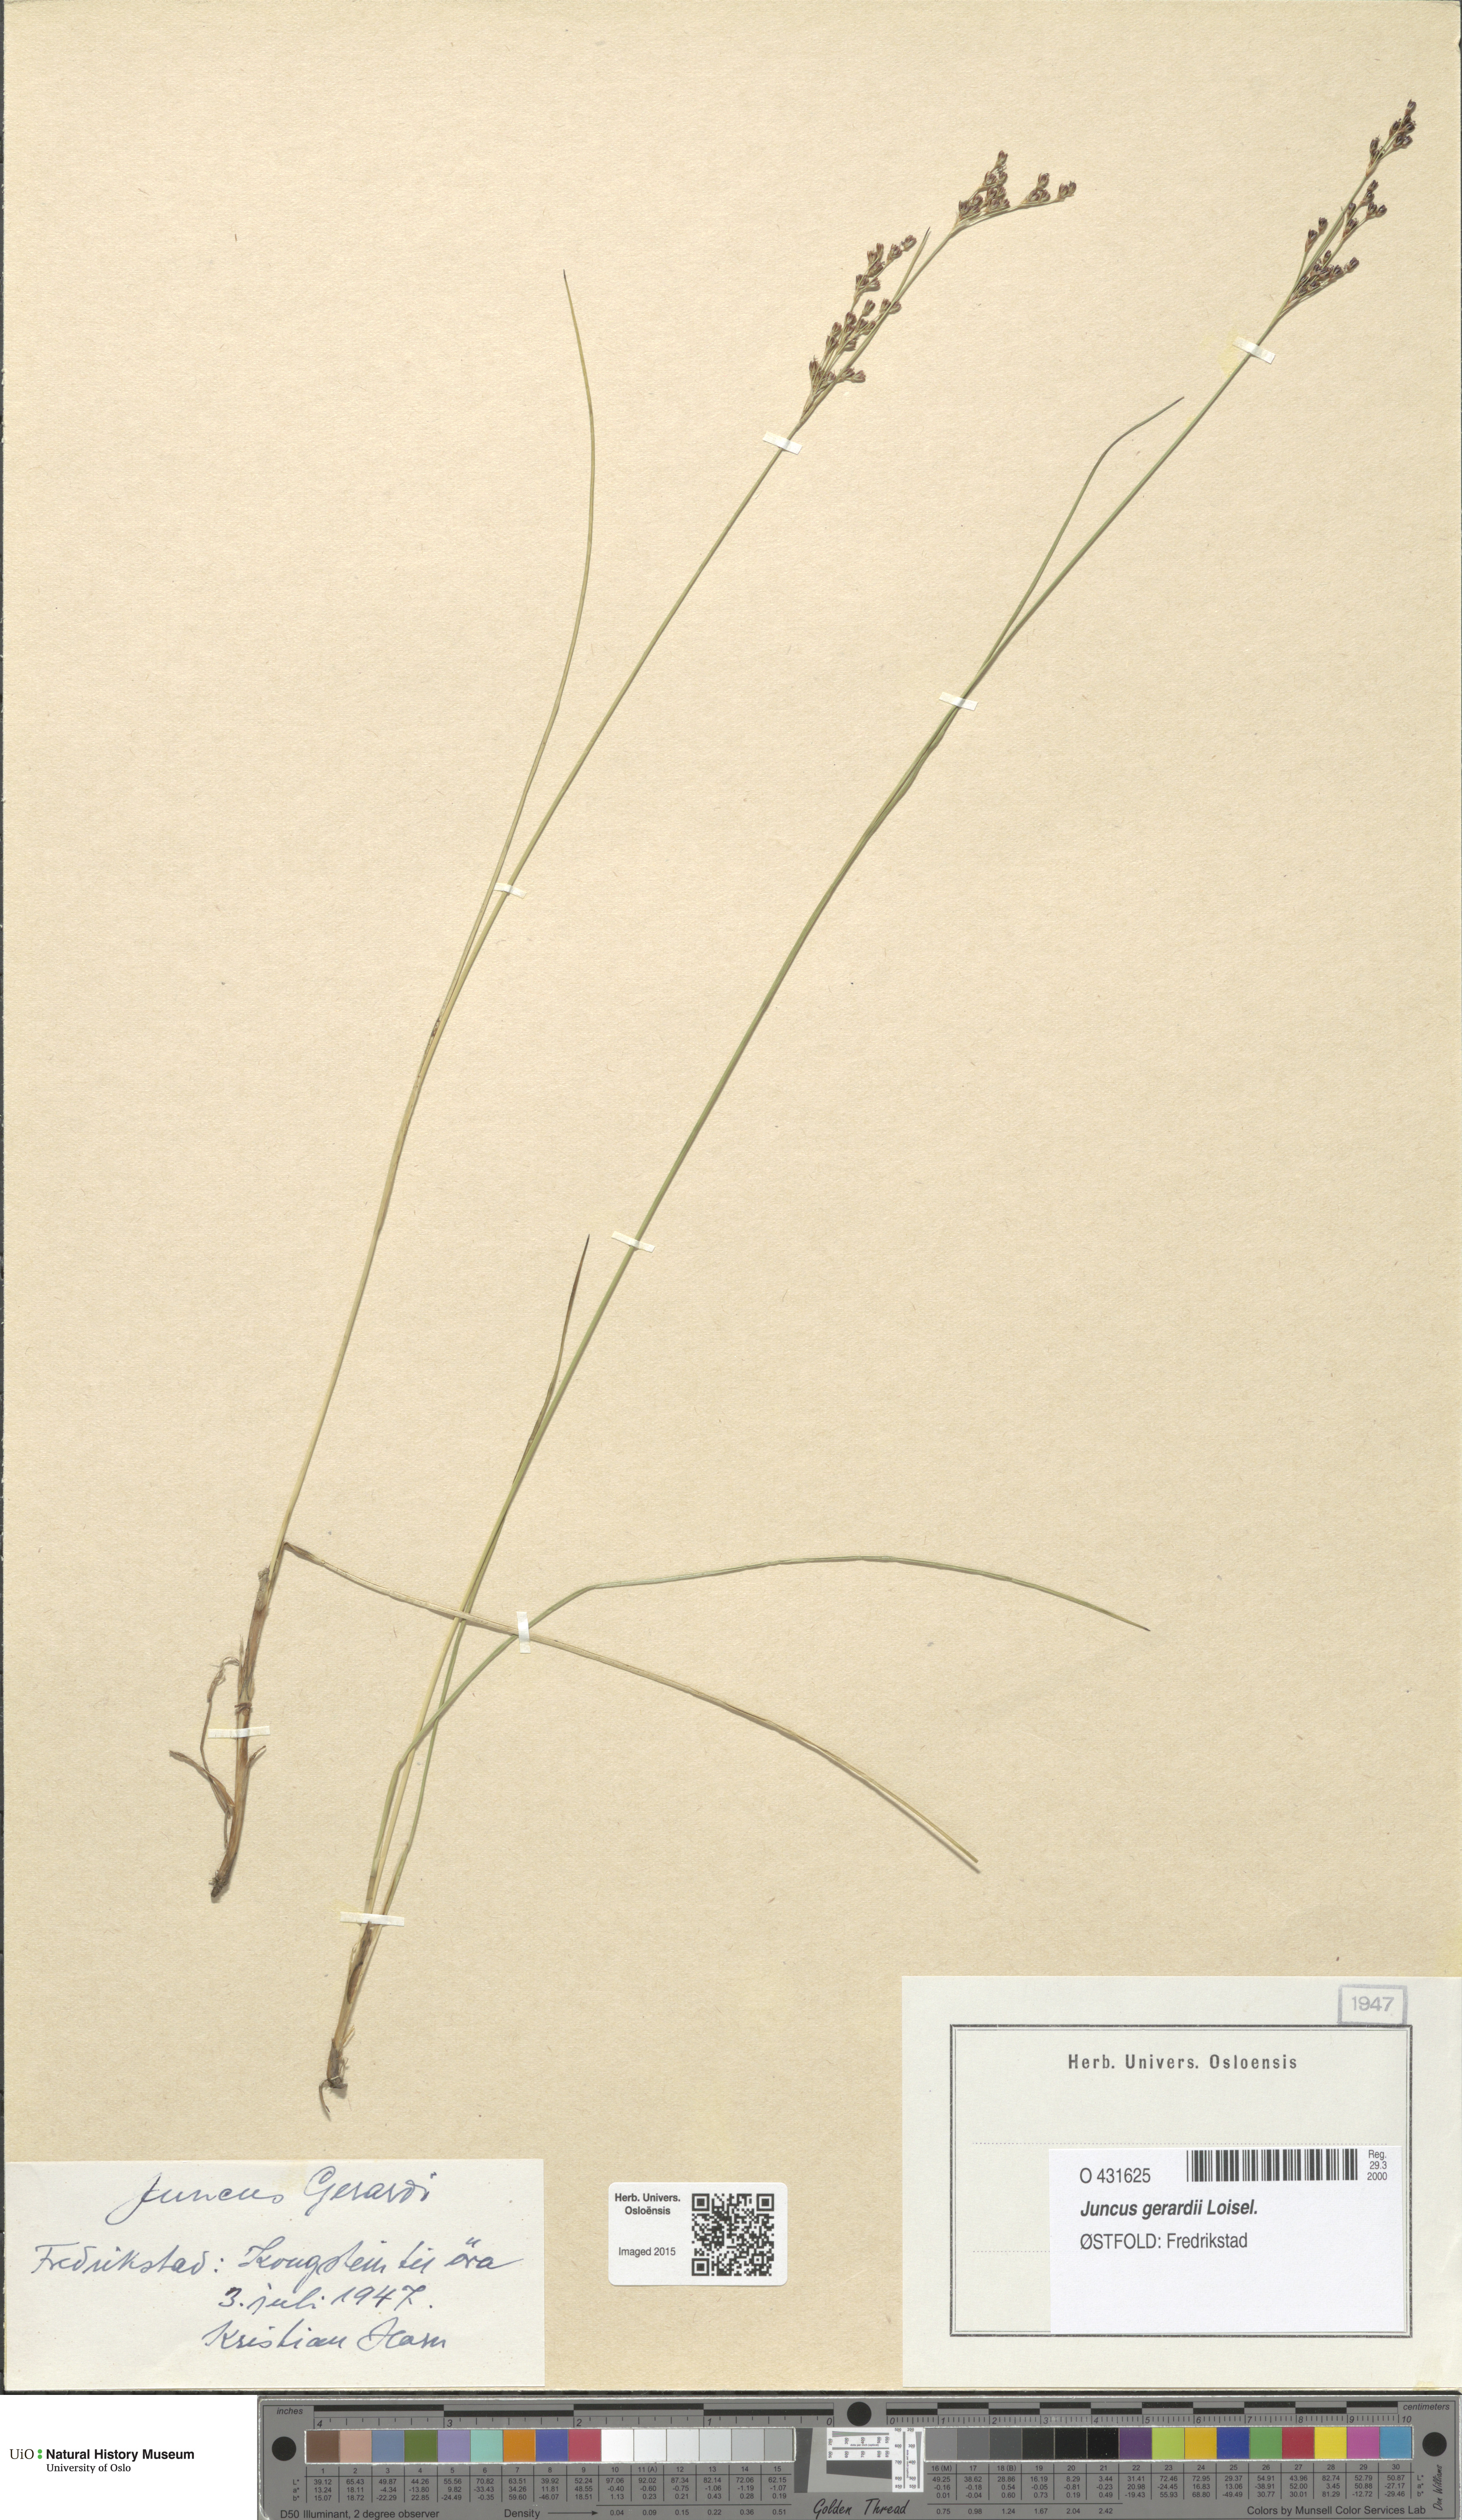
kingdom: Plantae
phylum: Tracheophyta
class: Liliopsida
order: Poales
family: Juncaceae
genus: Juncus
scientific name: Juncus gerardi
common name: Saltmarsh rush
